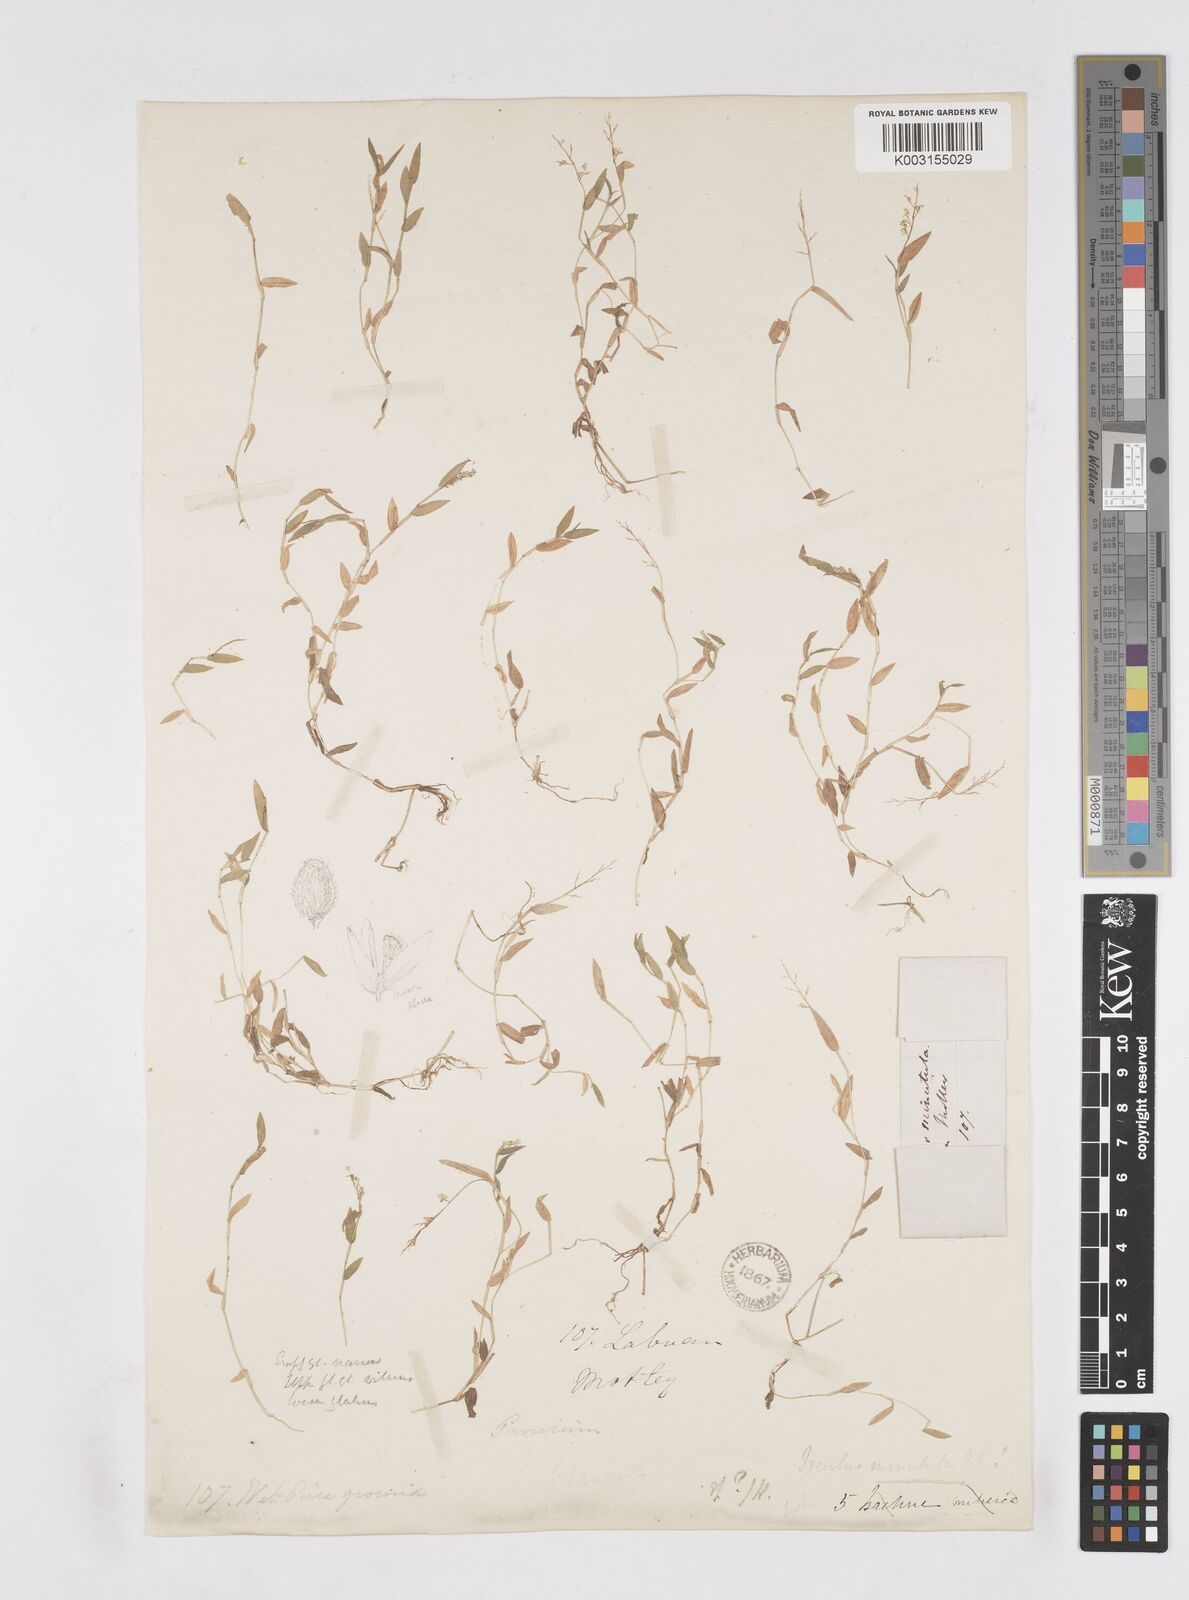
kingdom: Plantae
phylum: Tracheophyta
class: Liliopsida
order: Poales
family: Poaceae
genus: Isachne
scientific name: Isachne globosa
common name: Swamp millet
